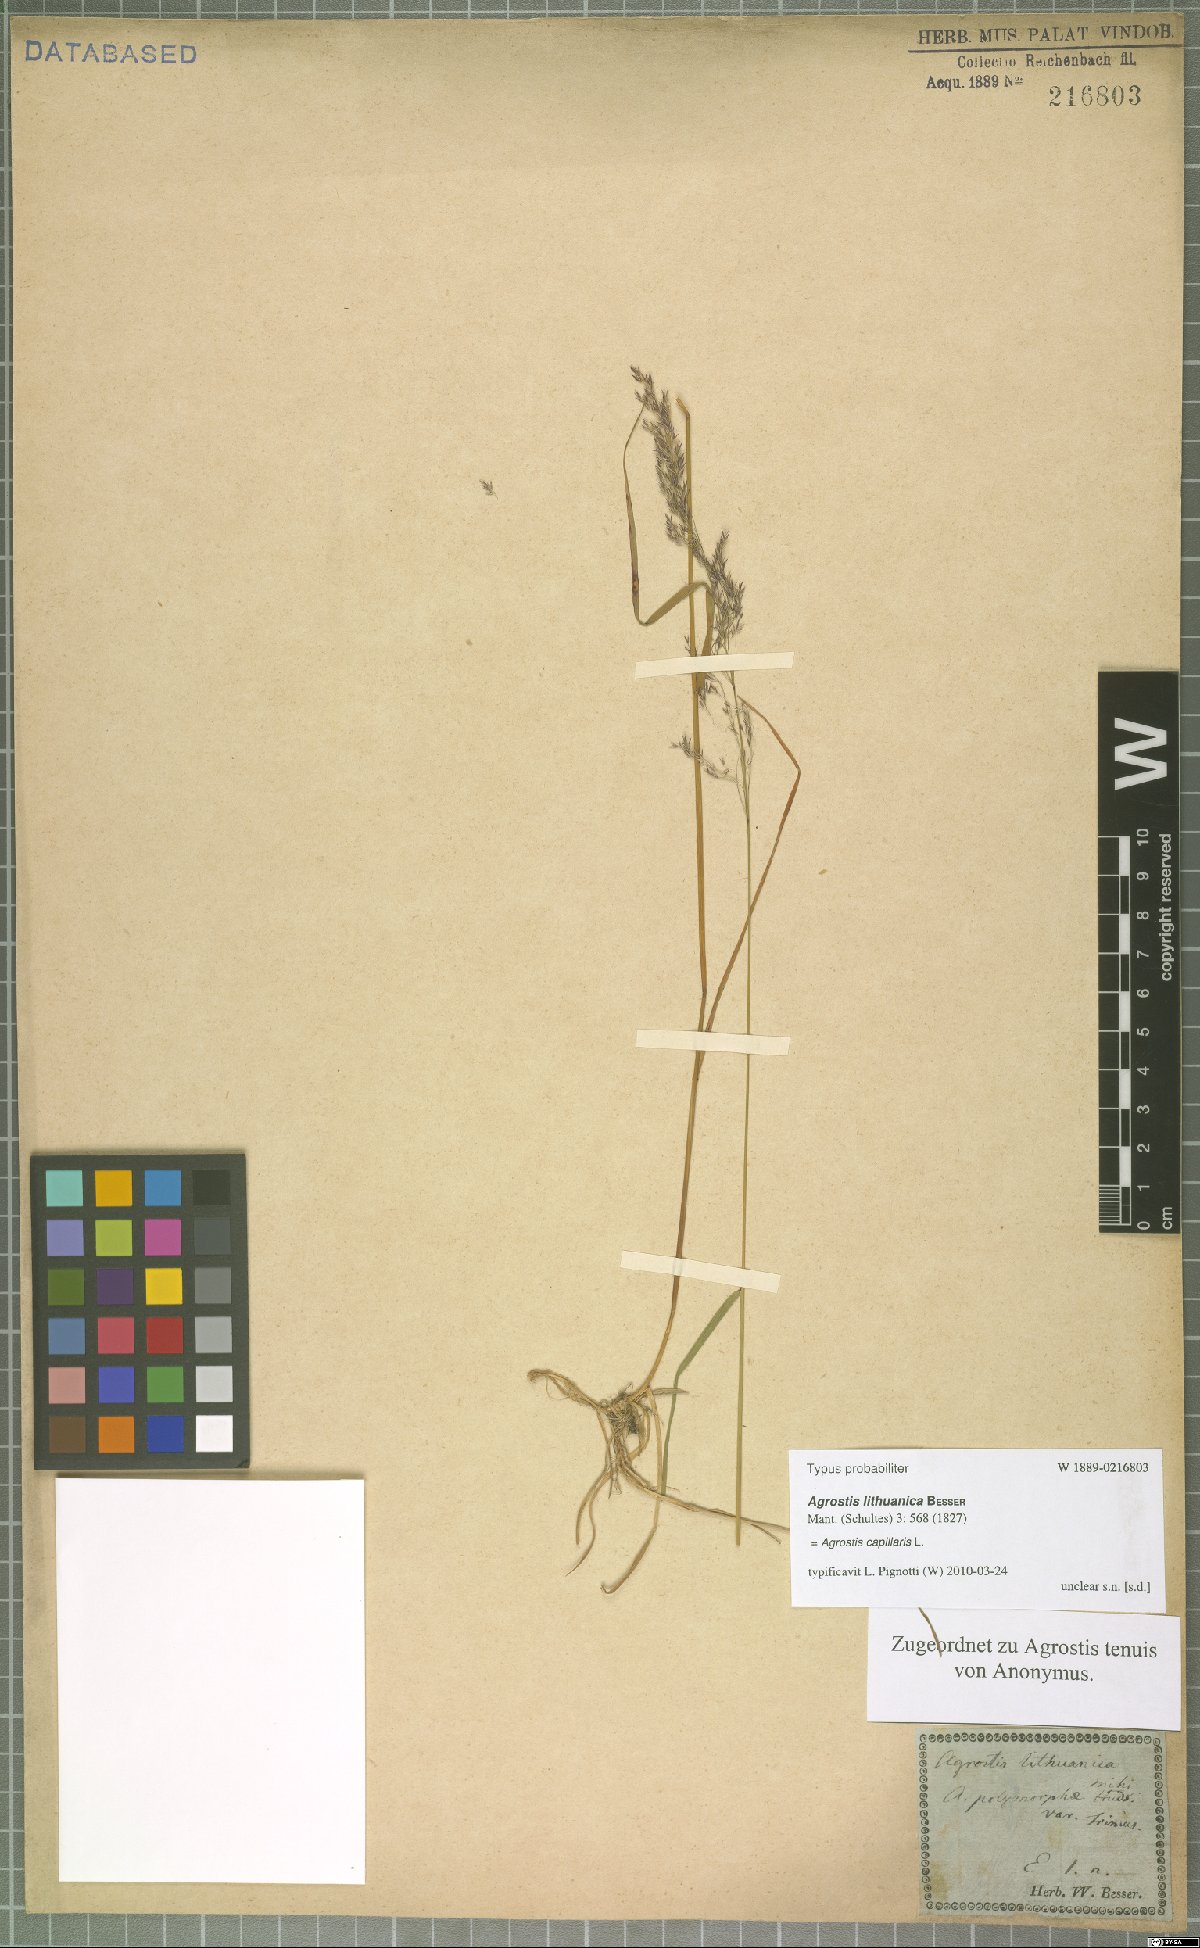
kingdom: Plantae
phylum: Tracheophyta
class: Liliopsida
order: Poales
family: Poaceae
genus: Agrostis
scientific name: Agrostis capillaris
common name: Colonial bentgrass
